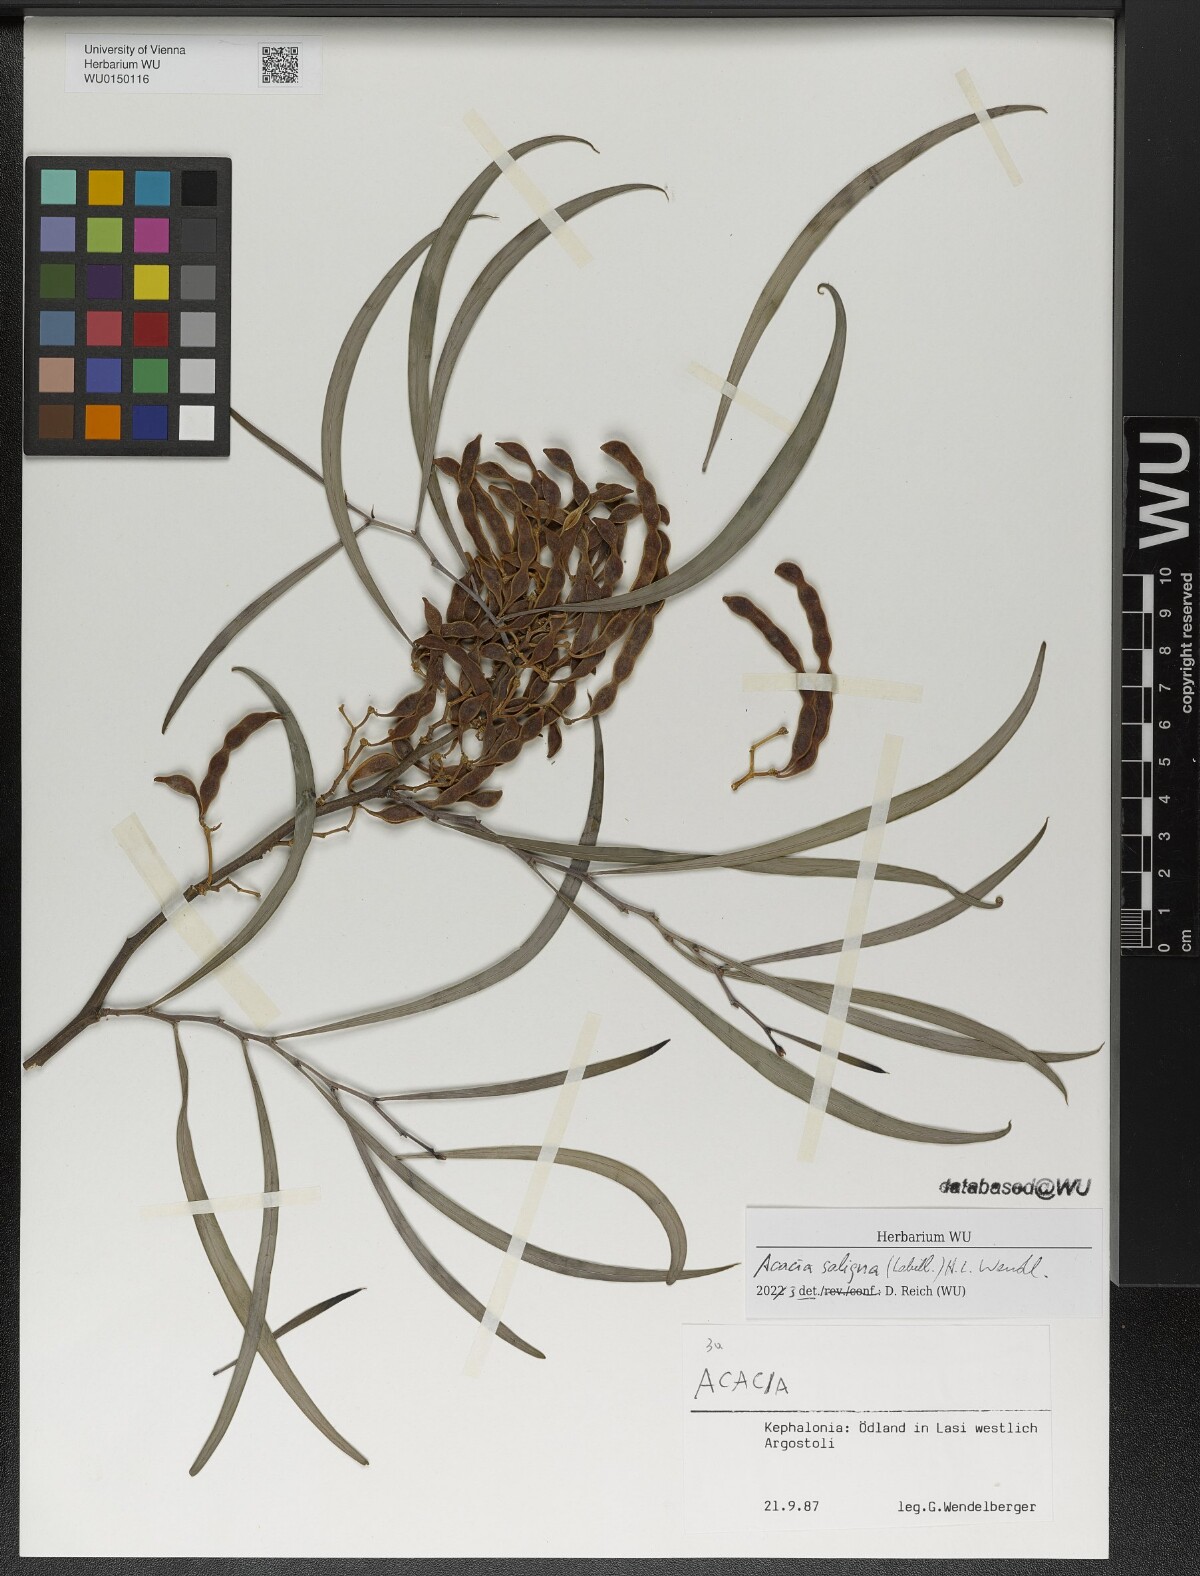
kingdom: Plantae
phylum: Tracheophyta
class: Magnoliopsida
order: Fabales
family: Fabaceae
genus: Acacia
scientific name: Acacia saligna
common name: Orange wattle
